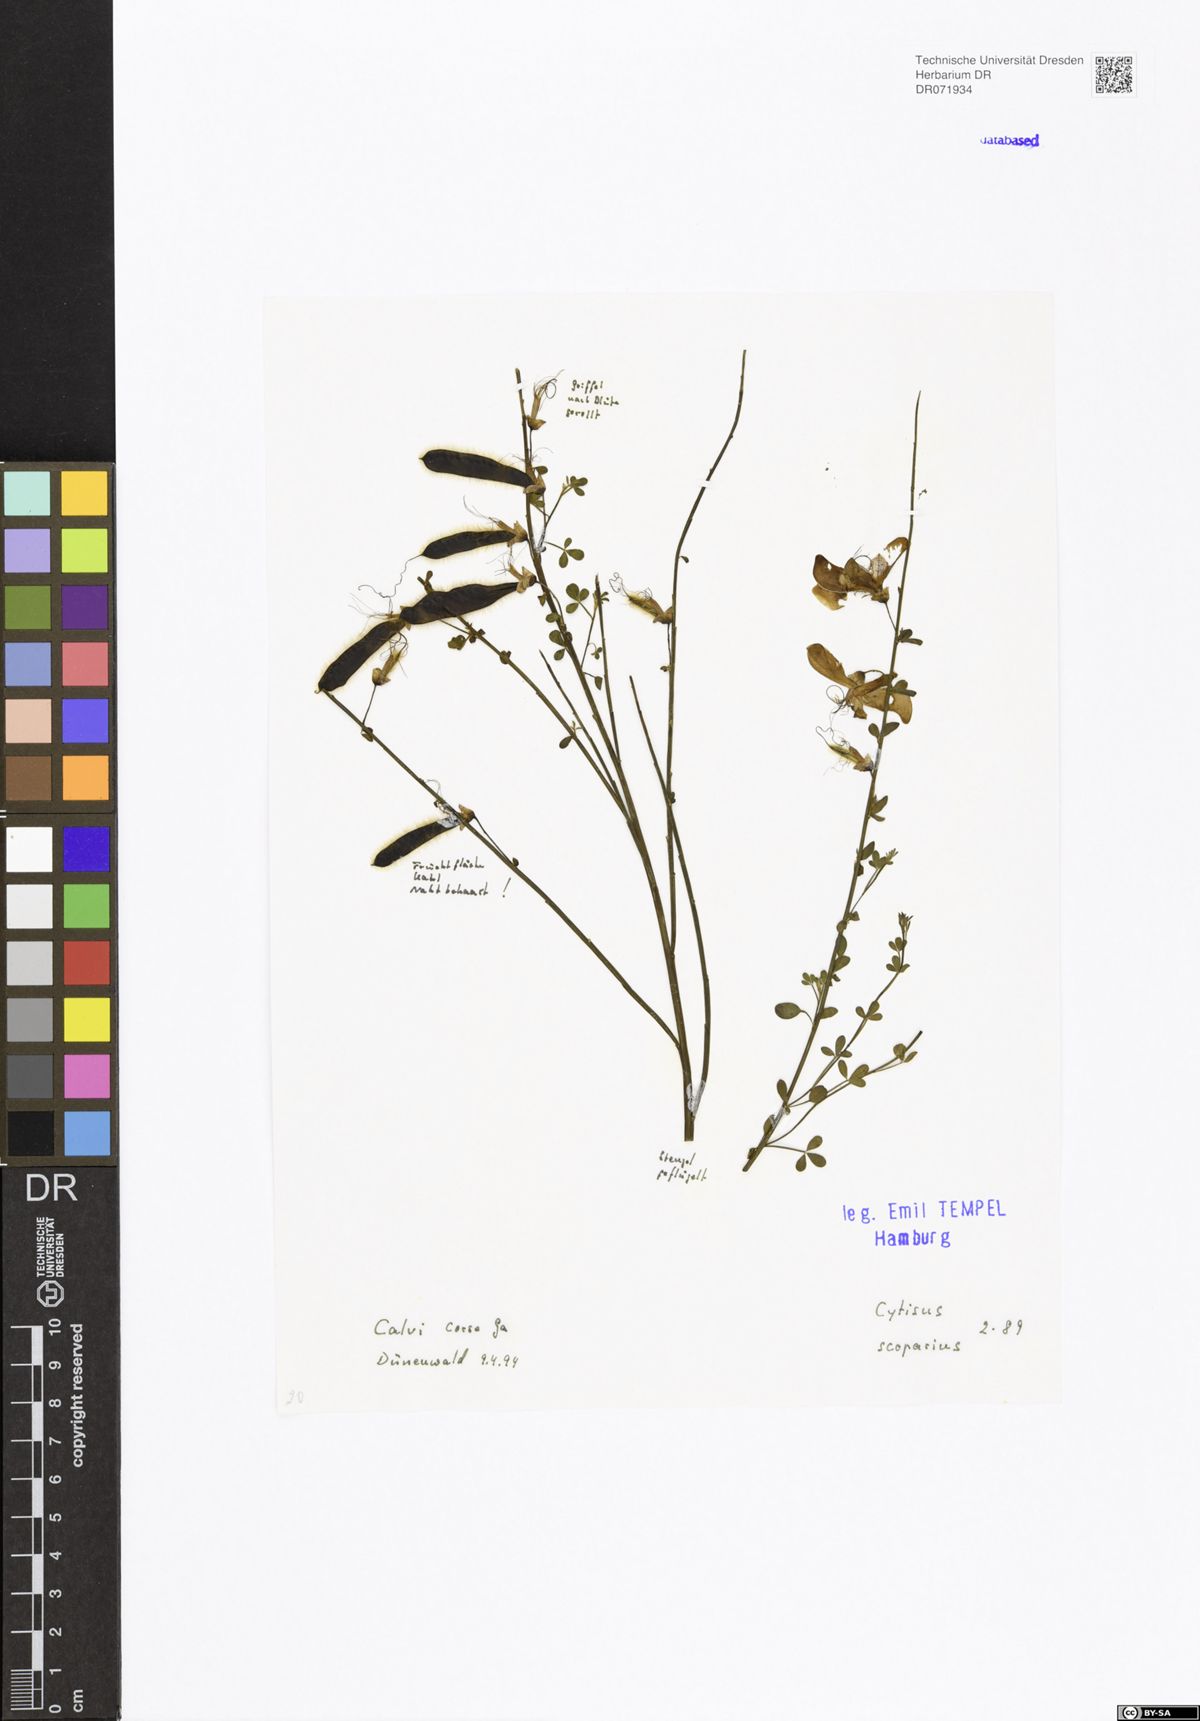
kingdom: Plantae
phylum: Tracheophyta
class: Magnoliopsida
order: Fabales
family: Fabaceae
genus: Cytisus
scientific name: Cytisus scoparius
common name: Scotch broom
